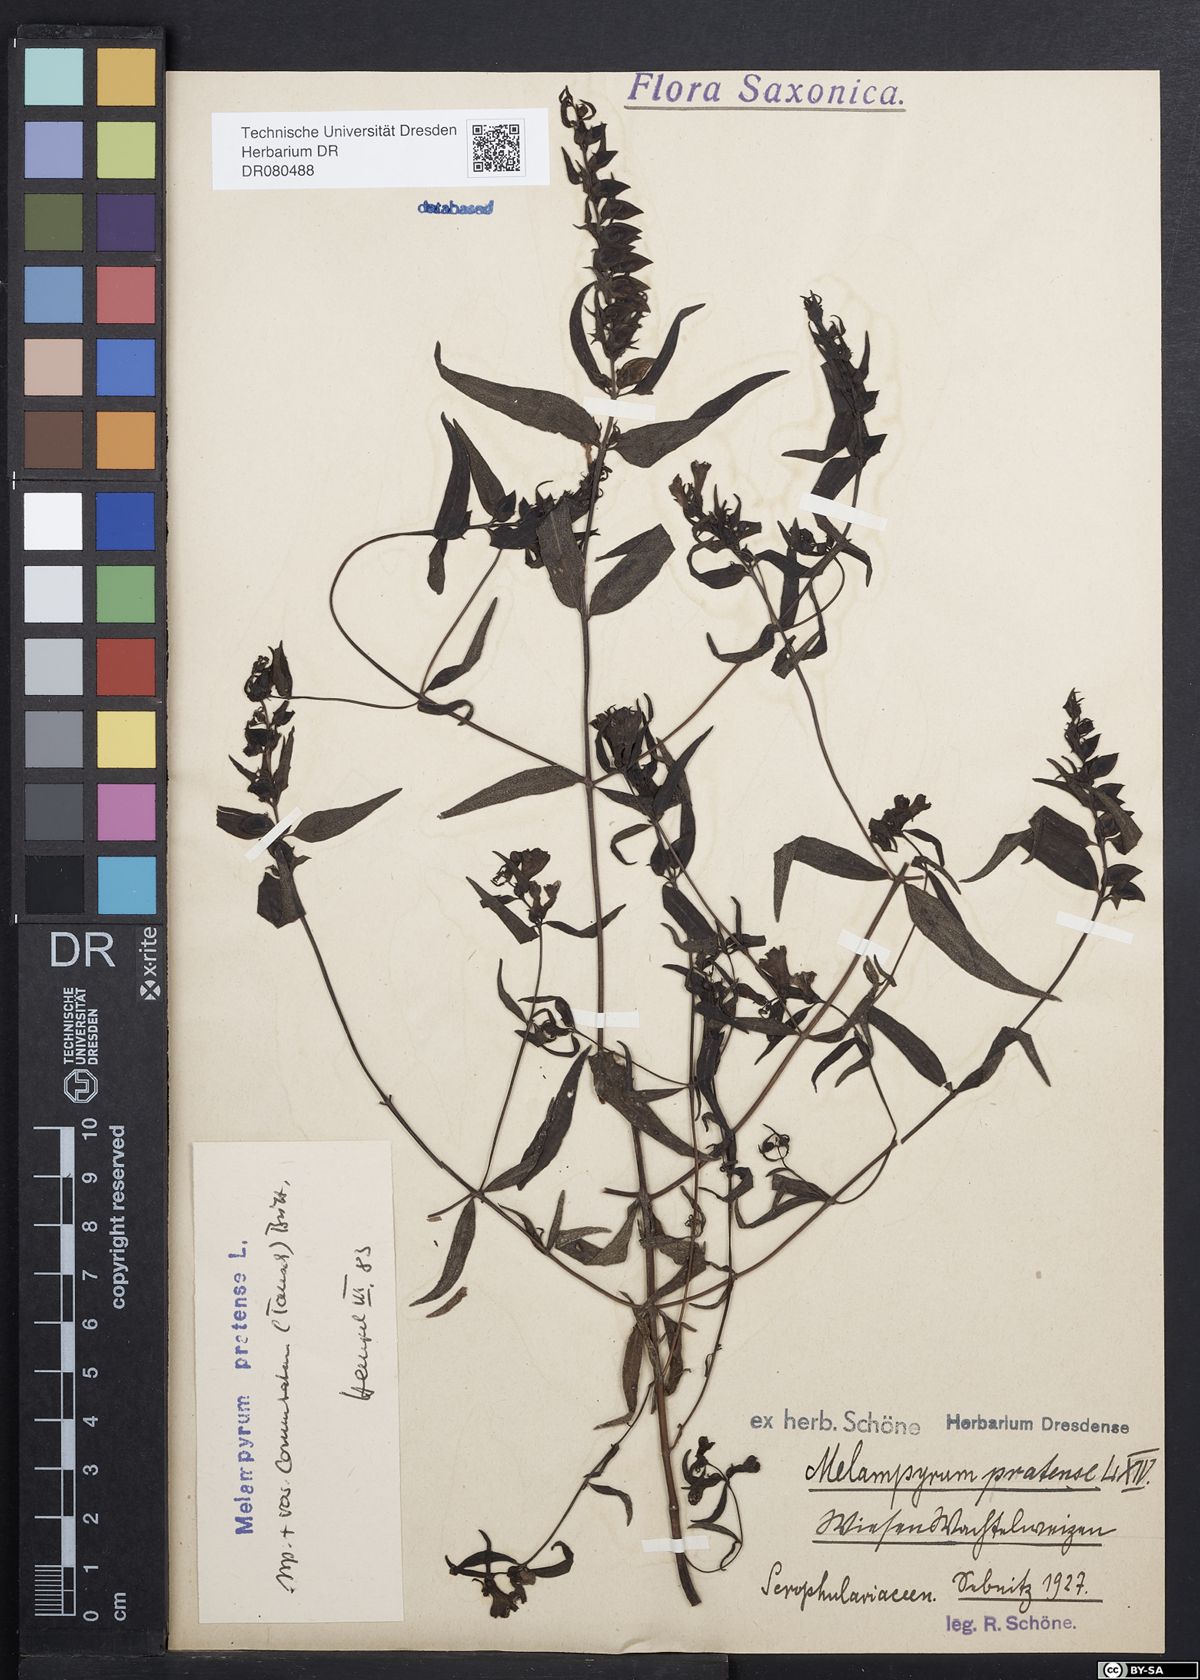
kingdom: Plantae
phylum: Tracheophyta
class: Magnoliopsida
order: Lamiales
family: Orobanchaceae
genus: Melampyrum
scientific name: Melampyrum pratense
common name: Common cow-wheat
